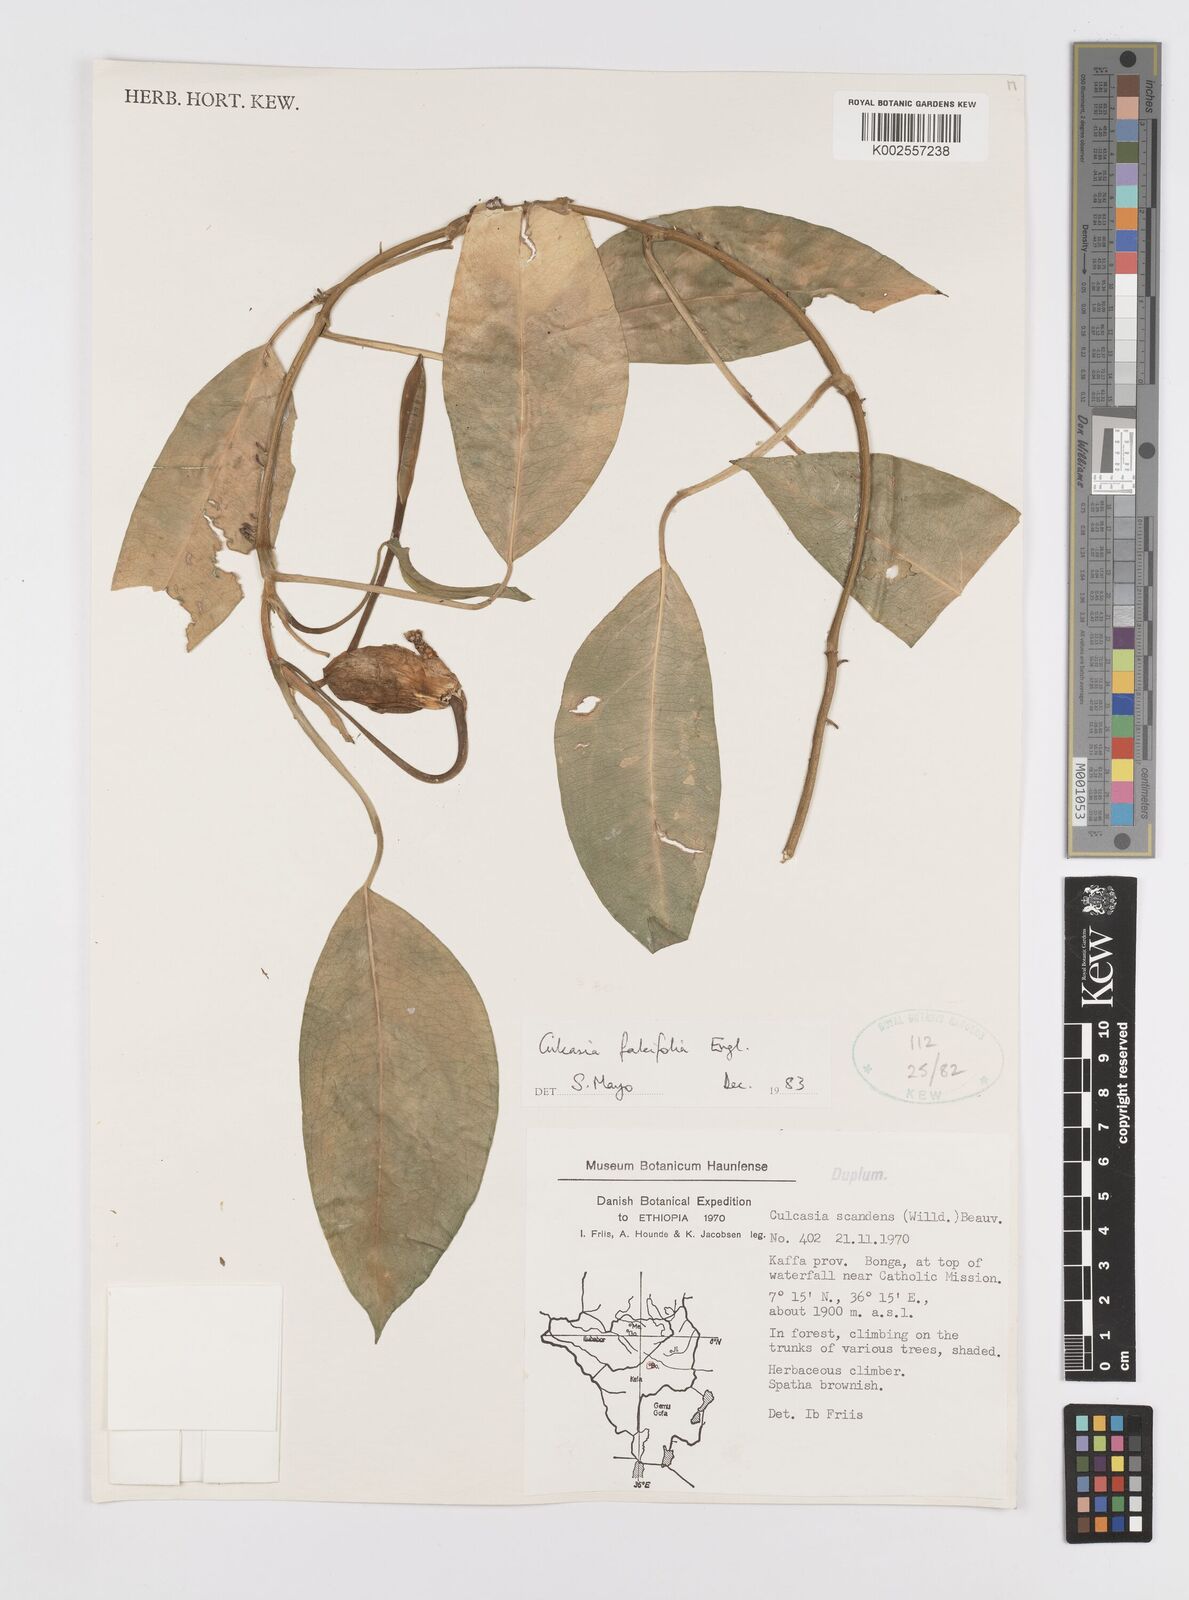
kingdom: Plantae
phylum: Tracheophyta
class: Liliopsida
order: Alismatales
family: Araceae
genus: Culcasia
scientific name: Culcasia falcifolia
